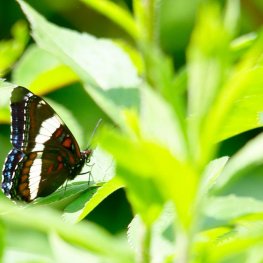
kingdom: Animalia
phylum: Arthropoda
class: Insecta
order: Lepidoptera
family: Nymphalidae
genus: Limenitis
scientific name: Limenitis arthemis
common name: Red-spotted Admiral
